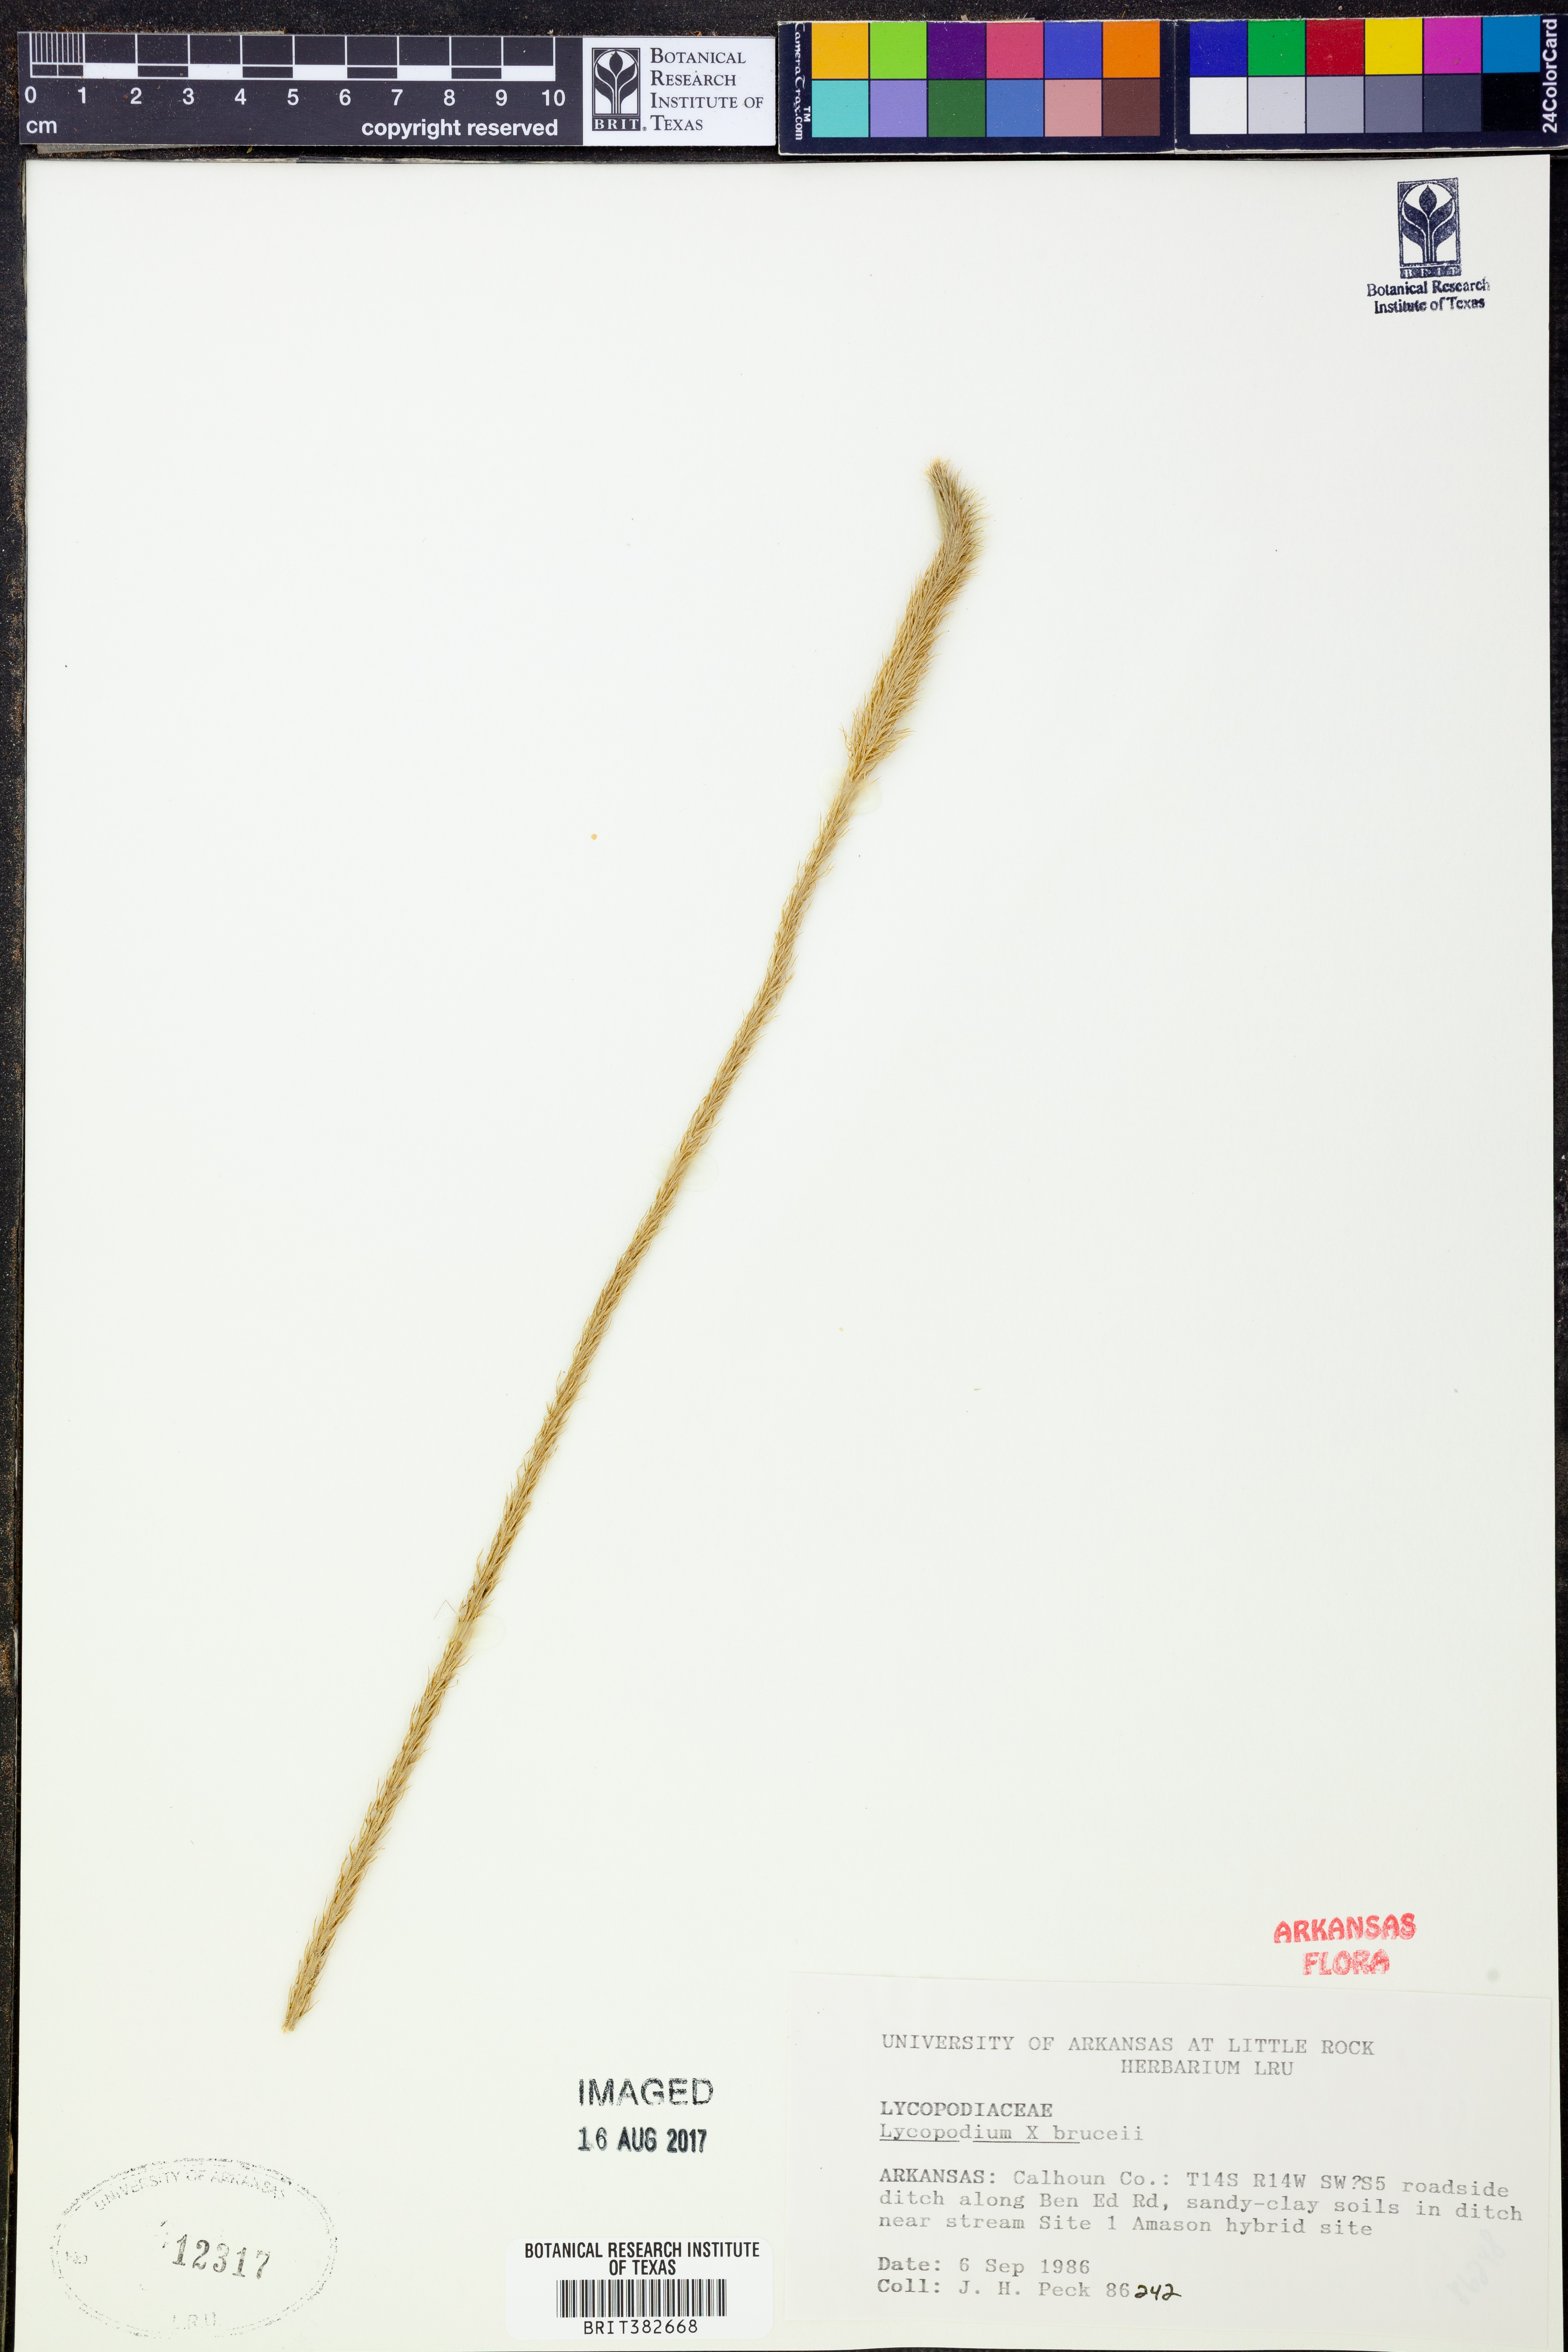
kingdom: Plantae
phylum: Tracheophyta
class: Lycopodiopsida
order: Lycopodiales
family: Lycopodiaceae
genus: Lycopodiella
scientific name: Lycopodiella brucei
